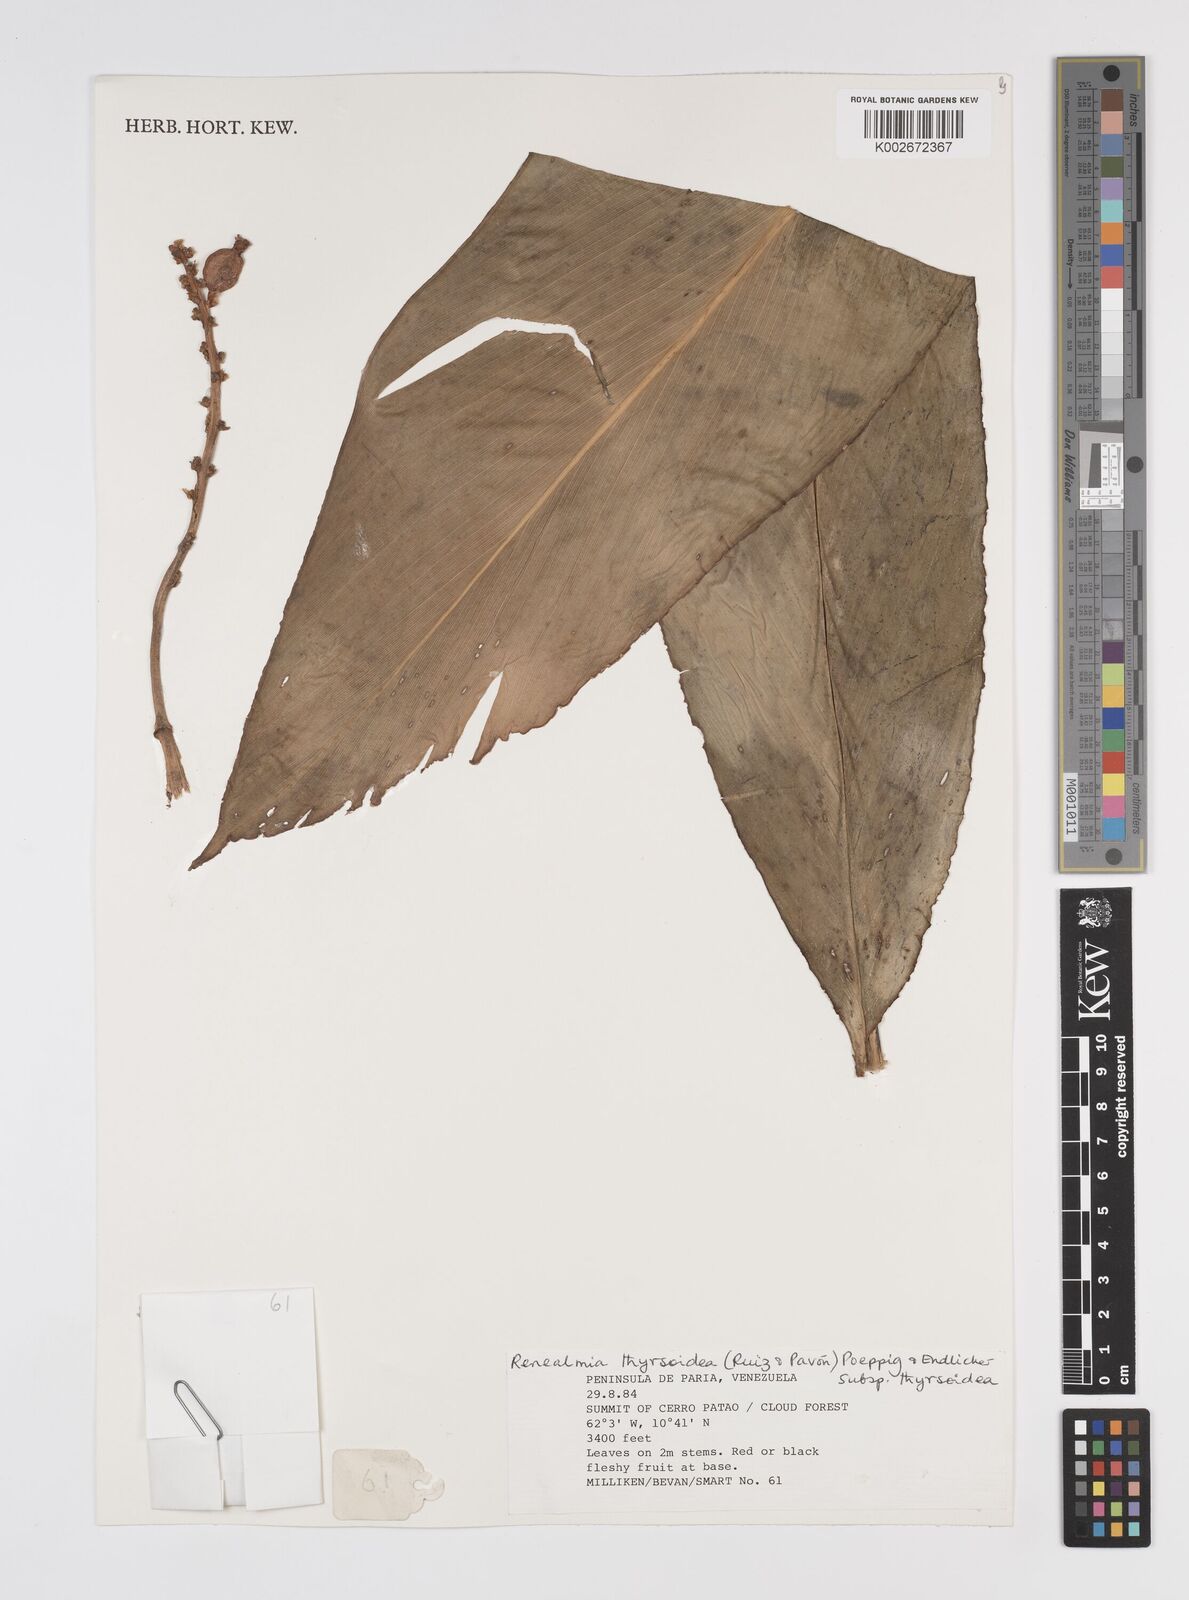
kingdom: Plantae
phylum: Tracheophyta
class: Liliopsida
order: Zingiberales
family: Zingiberaceae
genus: Renealmia
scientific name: Renealmia thyrsoidea
